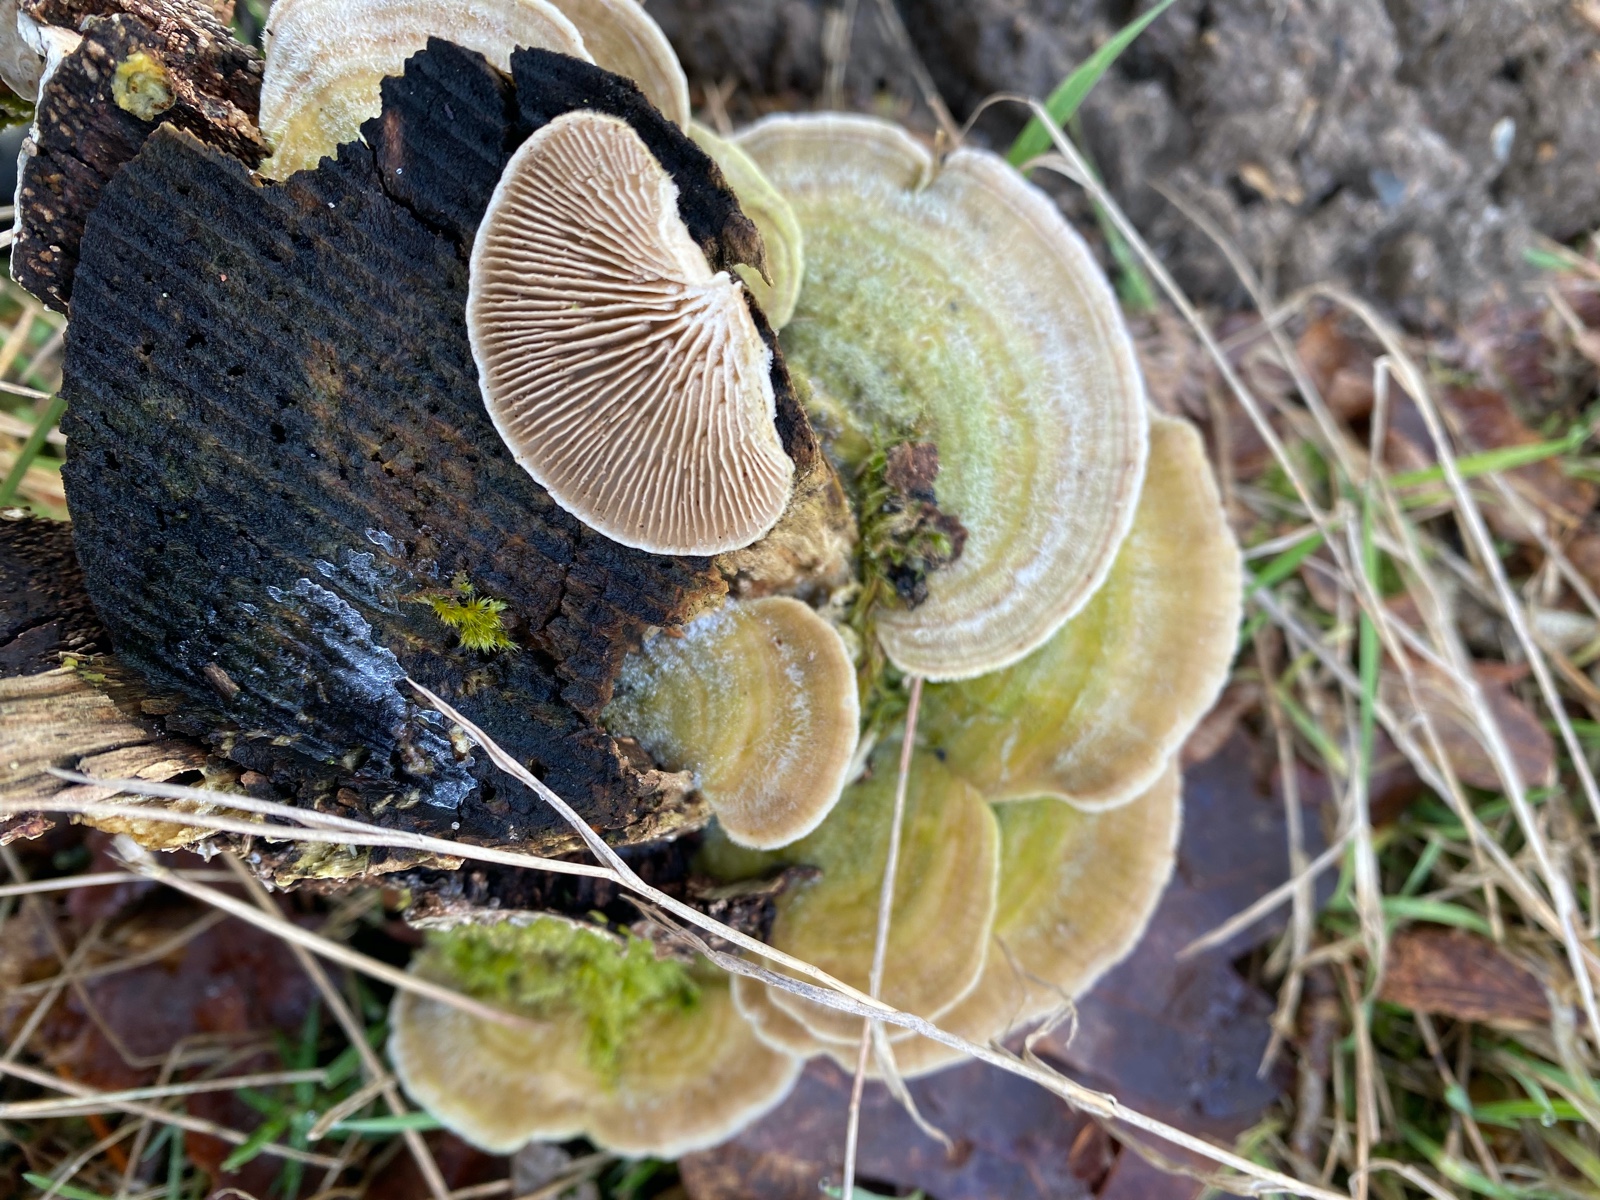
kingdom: Fungi
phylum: Basidiomycota
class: Agaricomycetes
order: Polyporales
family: Polyporaceae
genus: Lenzites
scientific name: Lenzites betulinus
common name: birke-læderporesvamp
